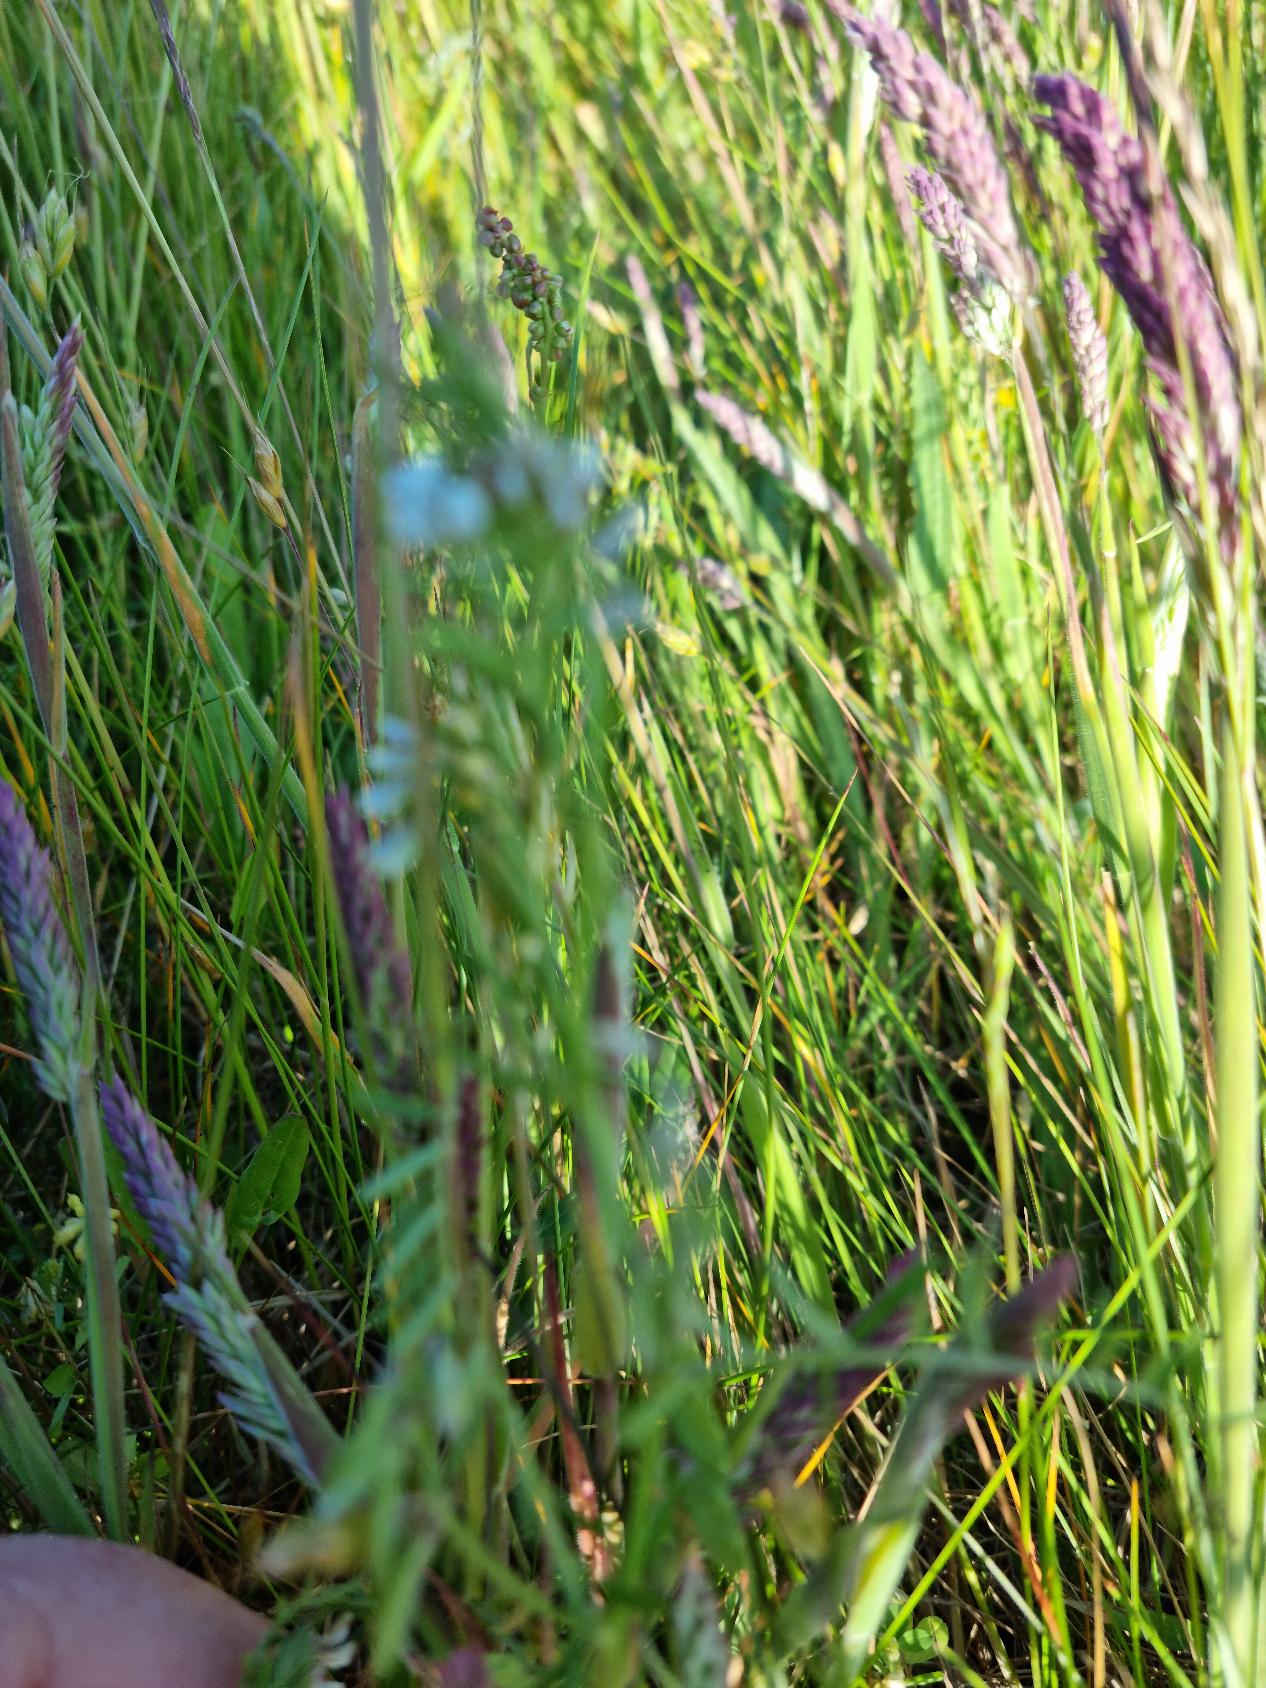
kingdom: Plantae
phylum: Tracheophyta
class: Liliopsida
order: Poales
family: Poaceae
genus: Holcus
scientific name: Holcus lanatus
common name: Fløjlsgræs
